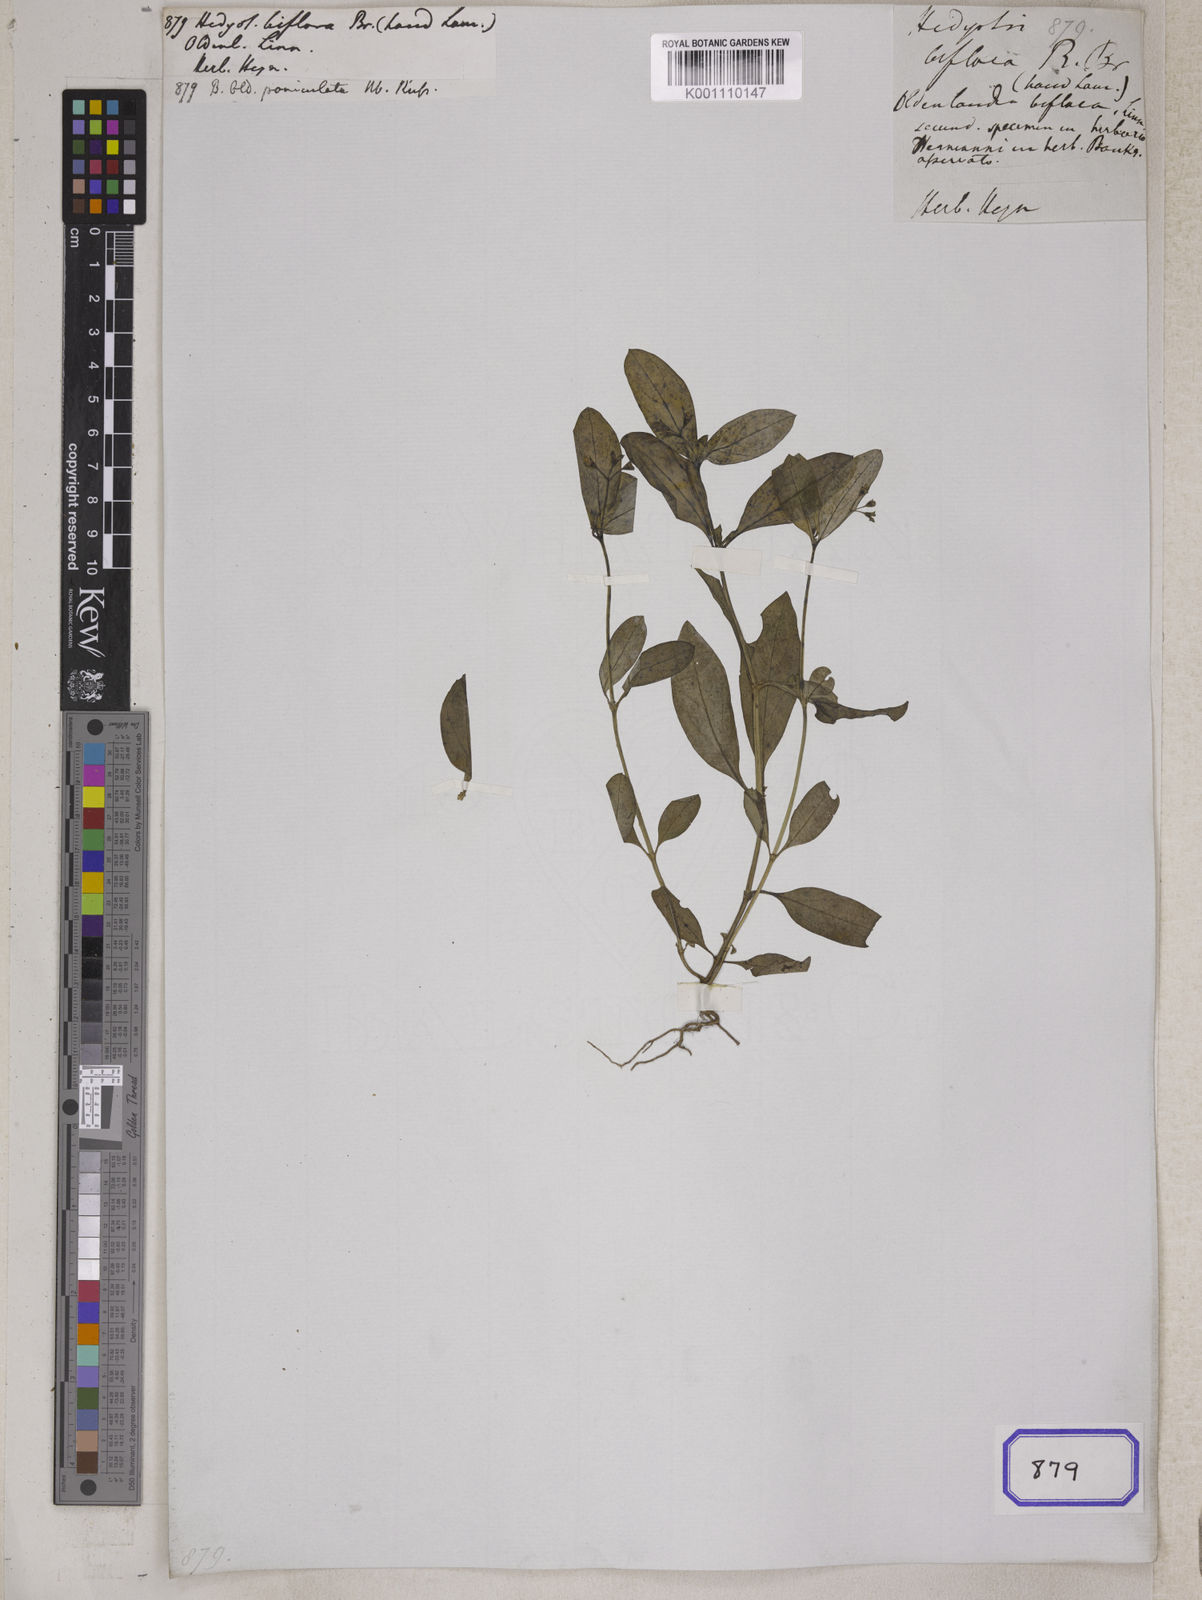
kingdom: Plantae
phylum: Tracheophyta
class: Magnoliopsida
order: Gentianales
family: Rubiaceae
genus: Hedyotis
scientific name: Hedyotis
